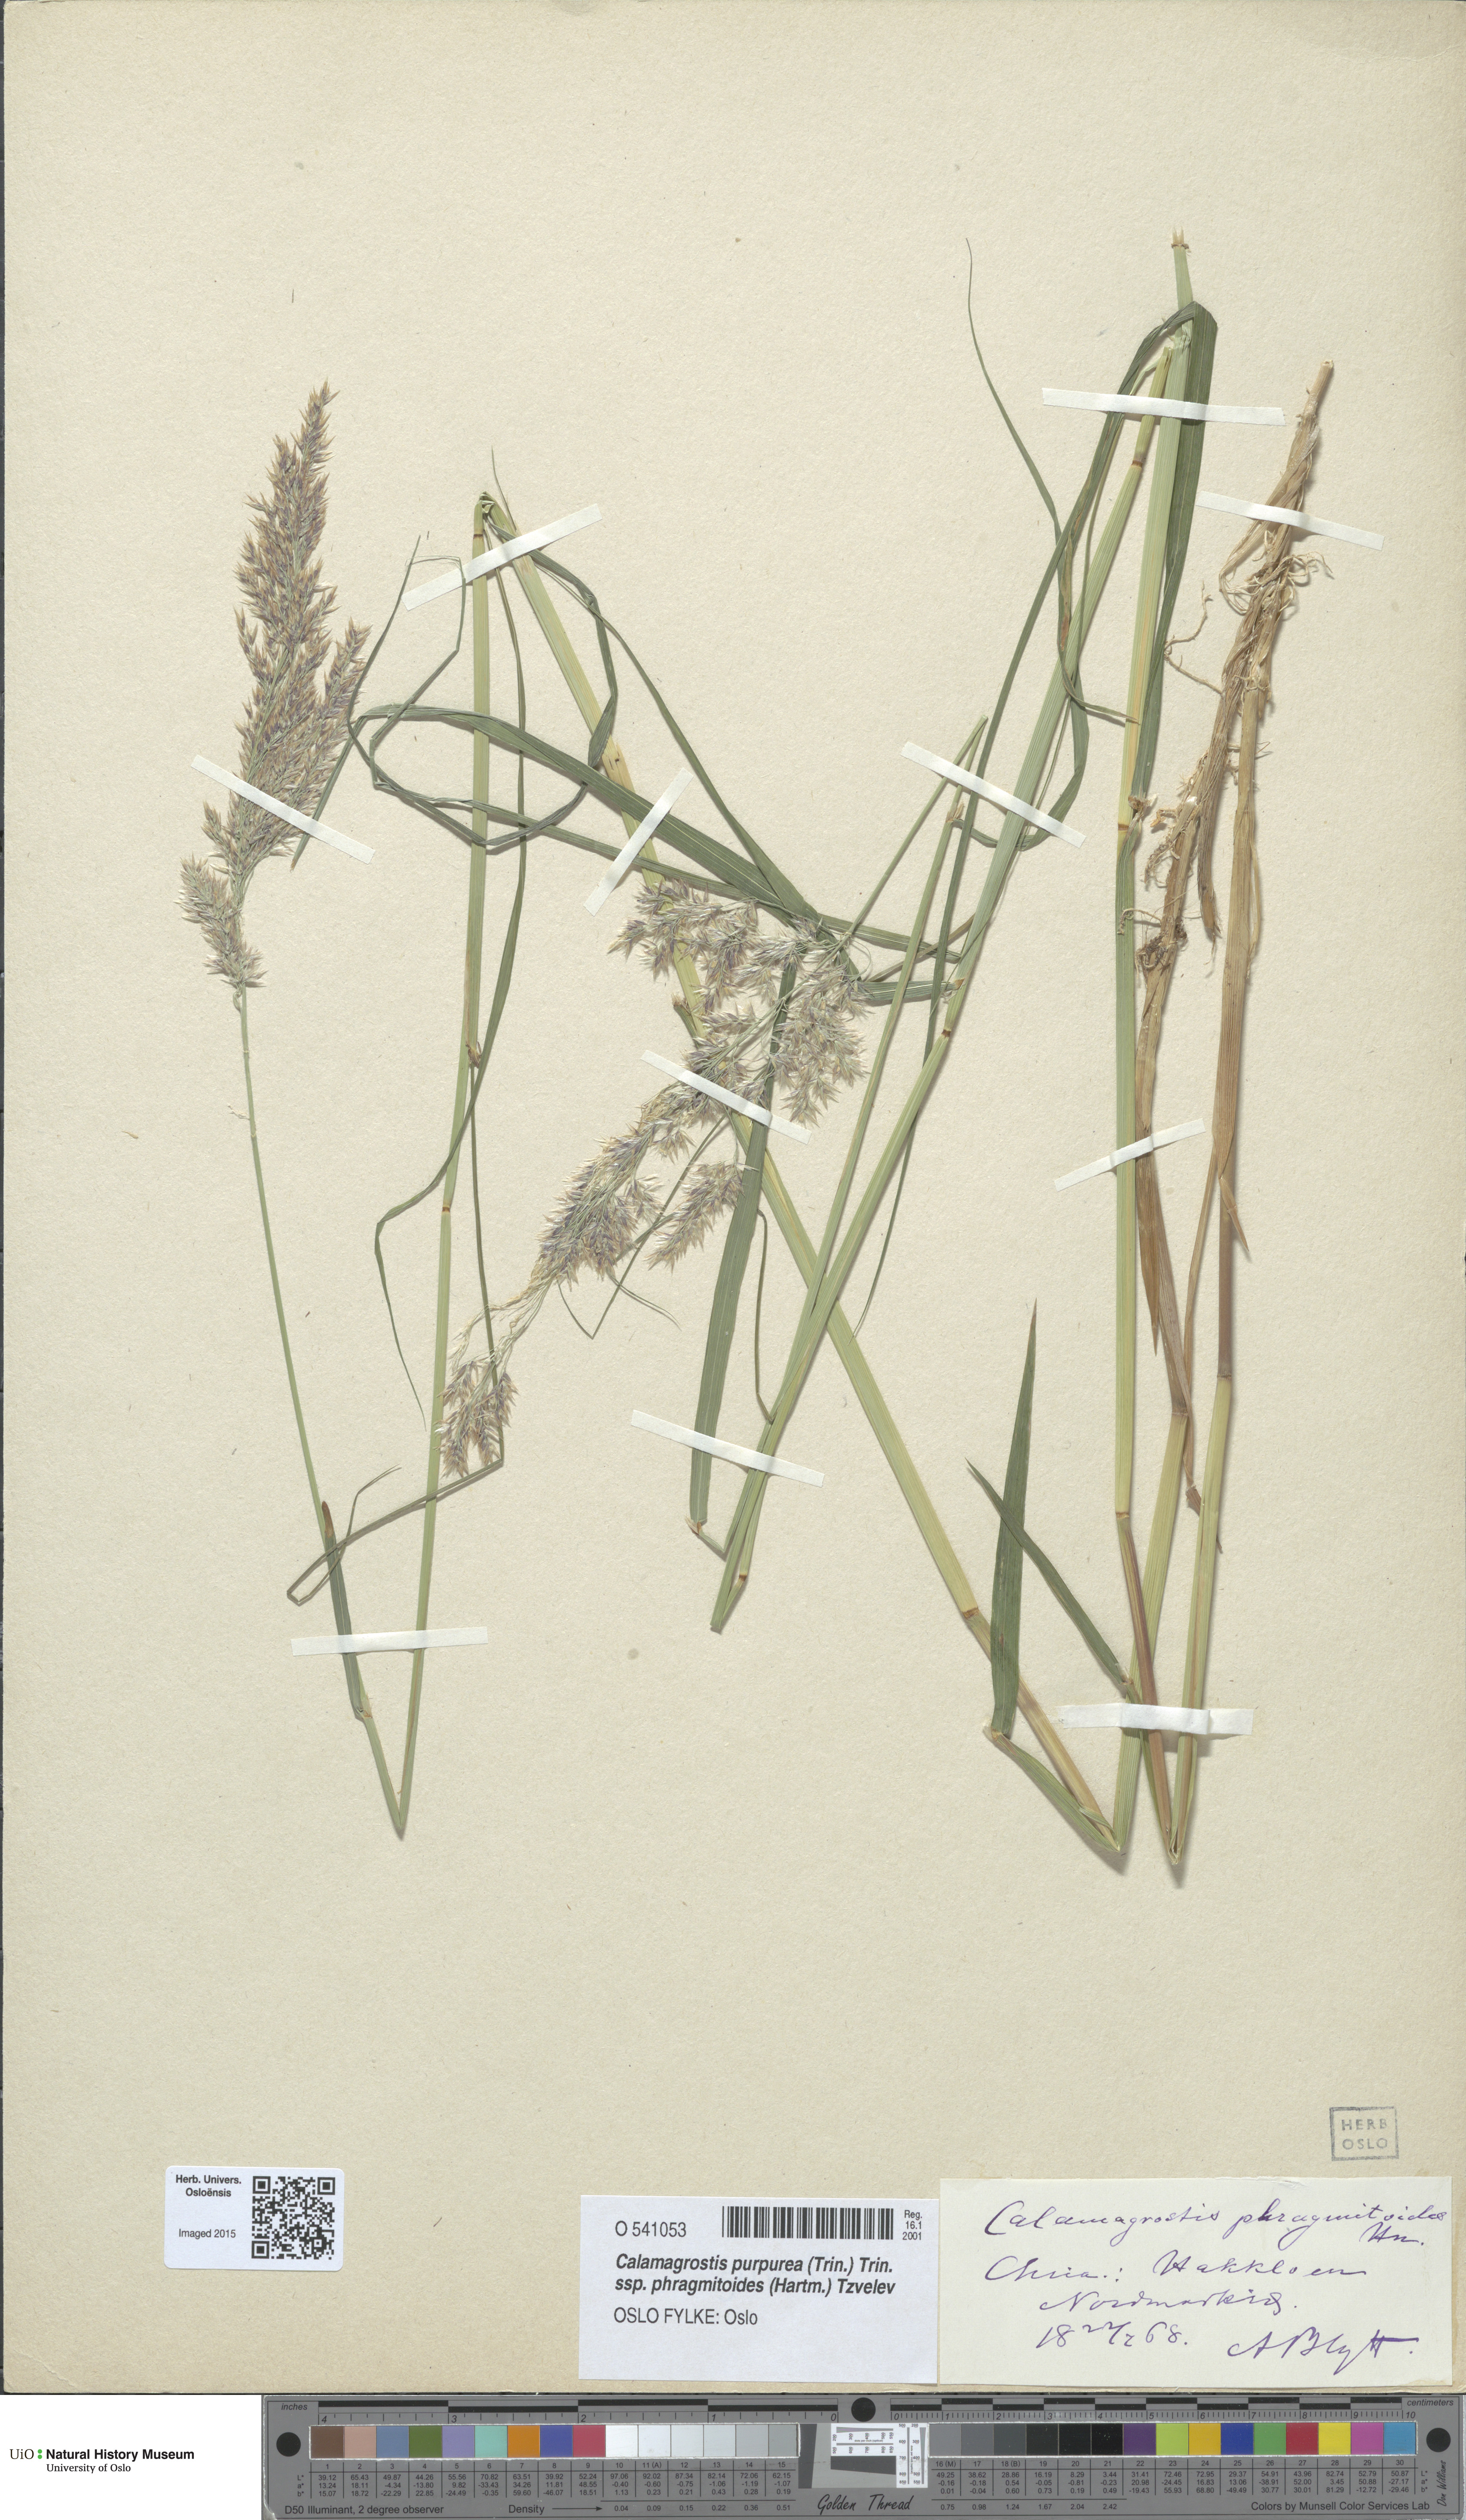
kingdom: Plantae
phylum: Tracheophyta
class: Liliopsida
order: Poales
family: Poaceae
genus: Calamagrostis
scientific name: Calamagrostis purpurea
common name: Scandinavian small-reed
